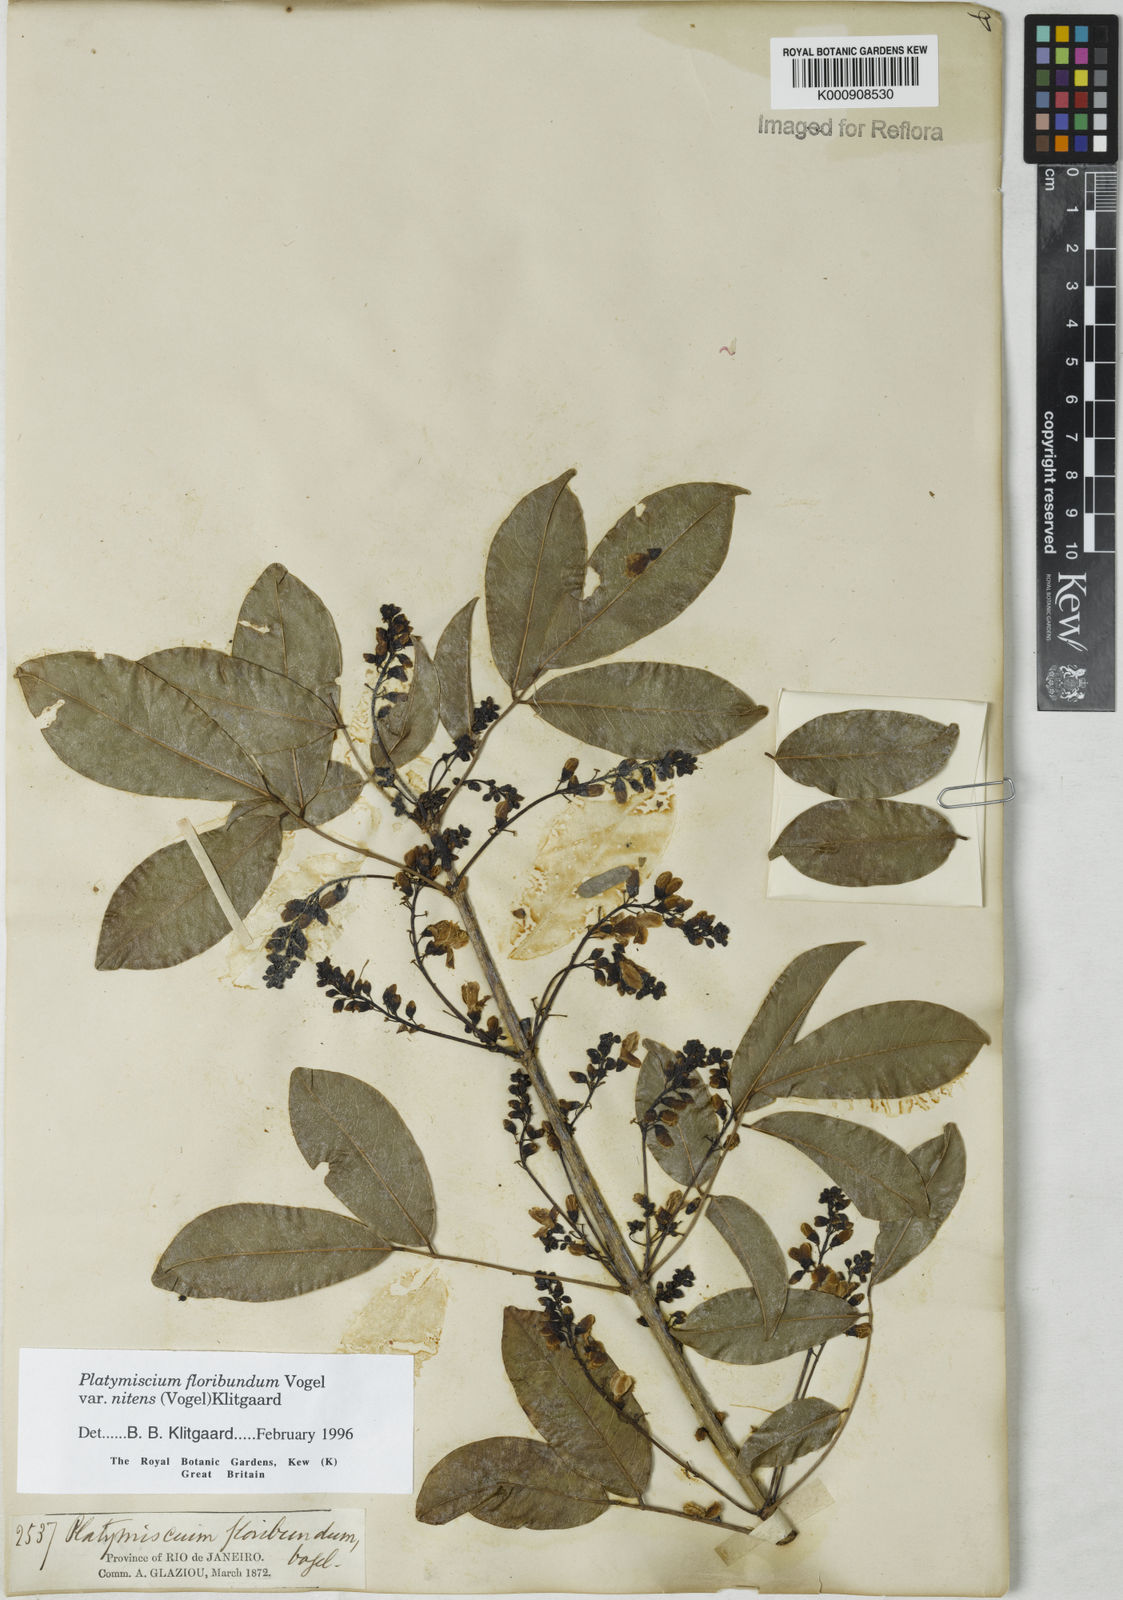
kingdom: Plantae
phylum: Tracheophyta
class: Magnoliopsida
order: Fabales
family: Fabaceae
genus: Platymiscium
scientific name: Platymiscium floribundum
